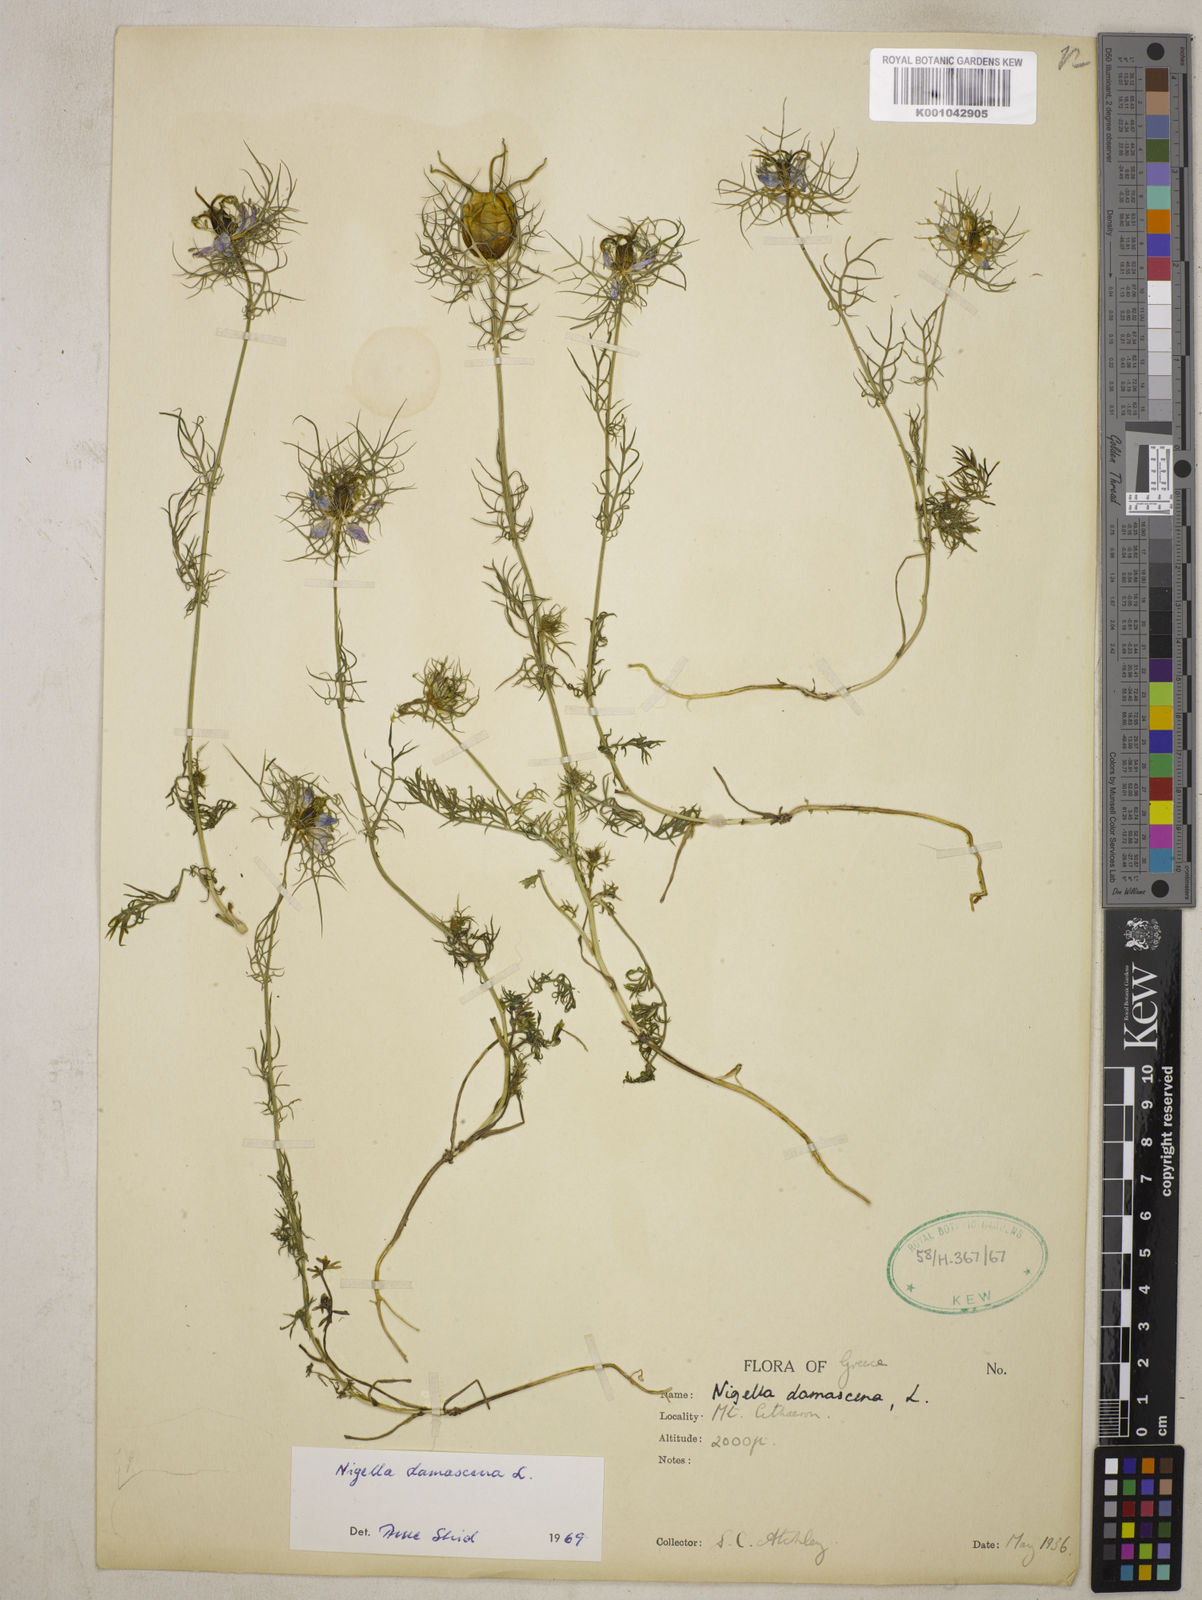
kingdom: Plantae
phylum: Tracheophyta
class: Magnoliopsida
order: Ranunculales
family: Ranunculaceae
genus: Nigella
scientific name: Nigella damascena
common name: Love-in-a-mist
